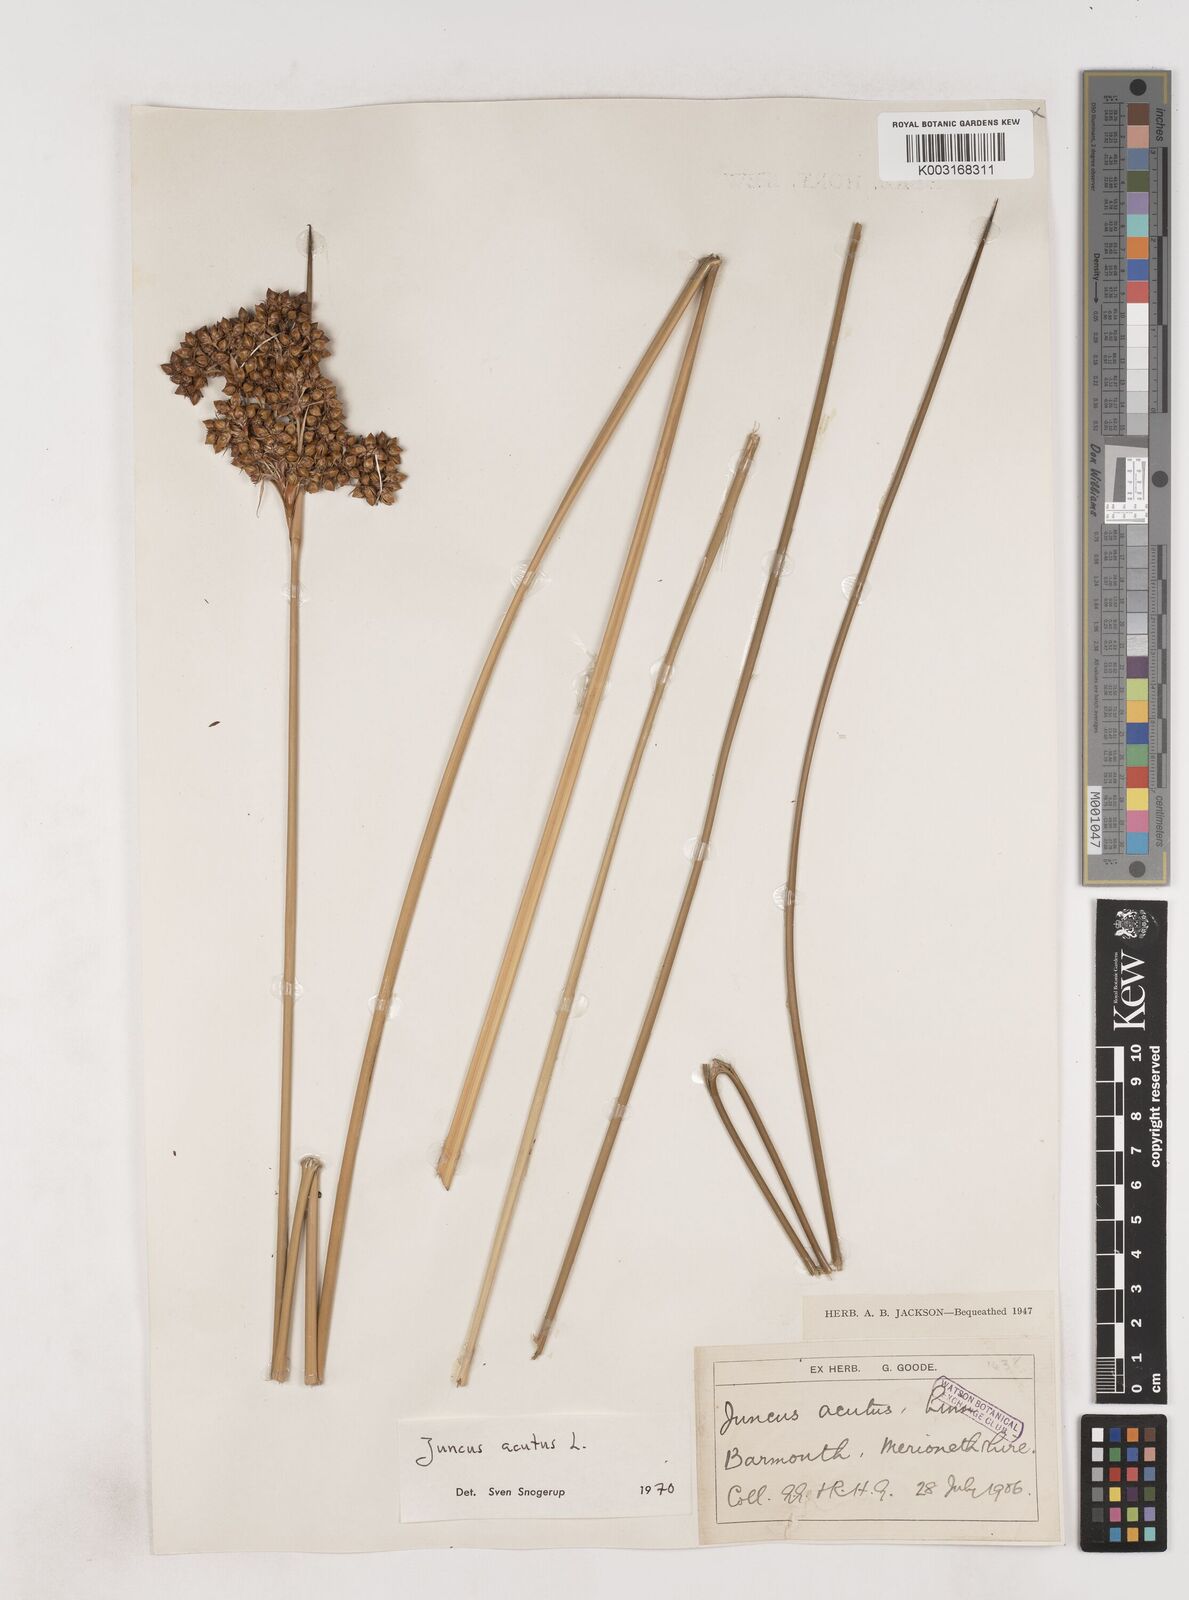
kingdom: Plantae
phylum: Tracheophyta
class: Liliopsida
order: Poales
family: Juncaceae
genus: Juncus
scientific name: Juncus acutus
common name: Sharp rush
